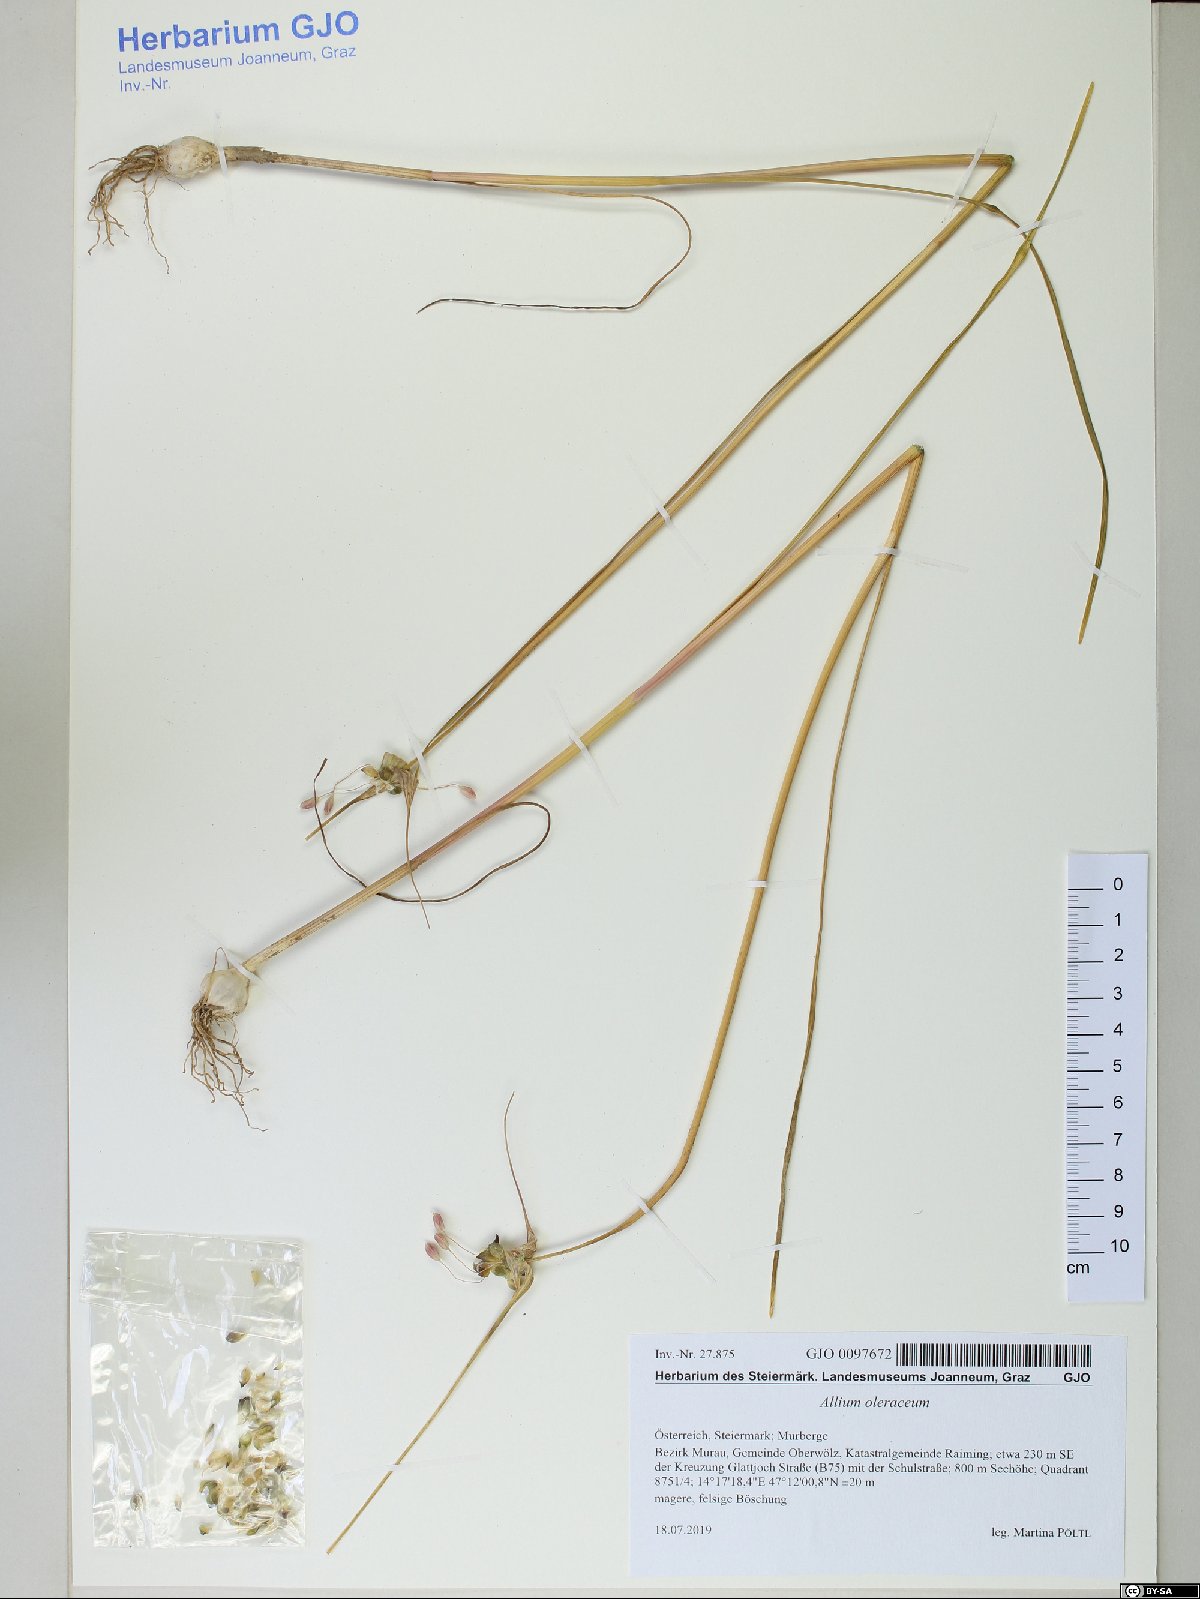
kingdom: Plantae
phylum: Tracheophyta
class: Liliopsida
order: Asparagales
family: Amaryllidaceae
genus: Allium
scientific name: Allium oleraceum
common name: Field garlic
